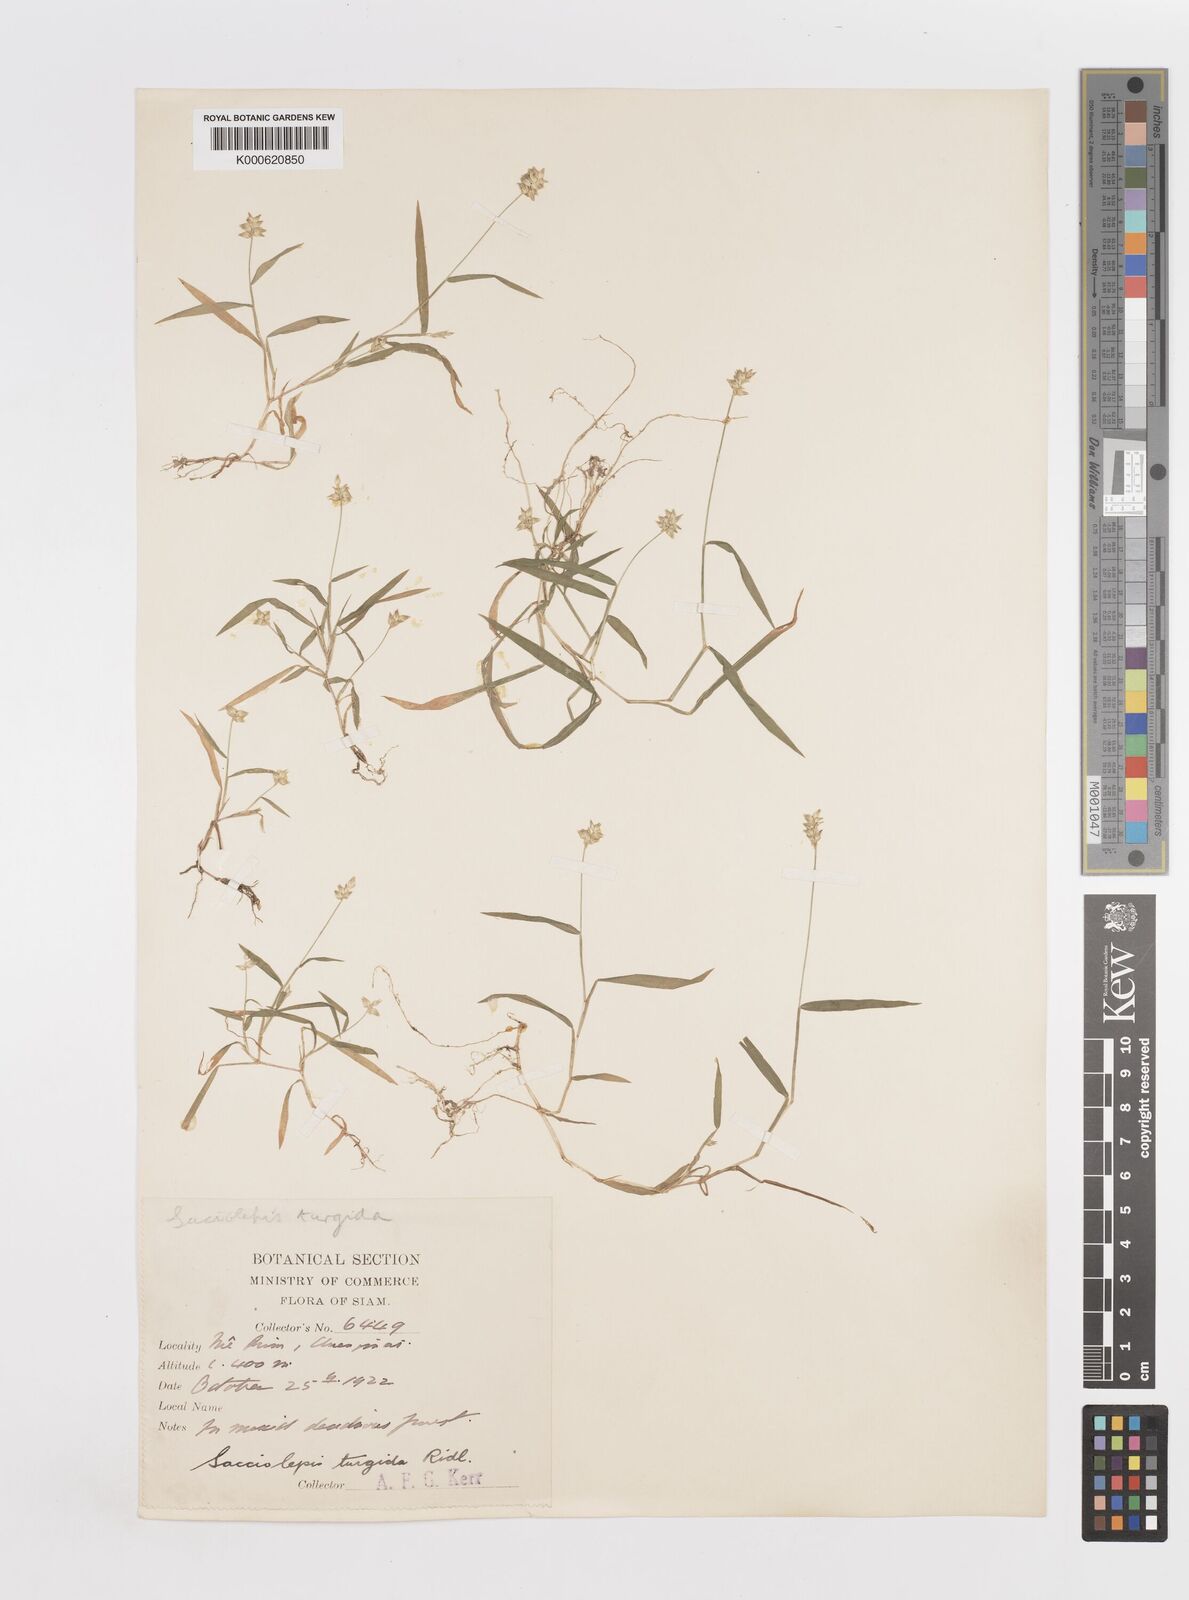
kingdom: Plantae
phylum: Tracheophyta
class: Liliopsida
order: Poales
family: Poaceae
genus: Sacciolepis
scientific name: Sacciolepis indica
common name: Glenwoodgrass
